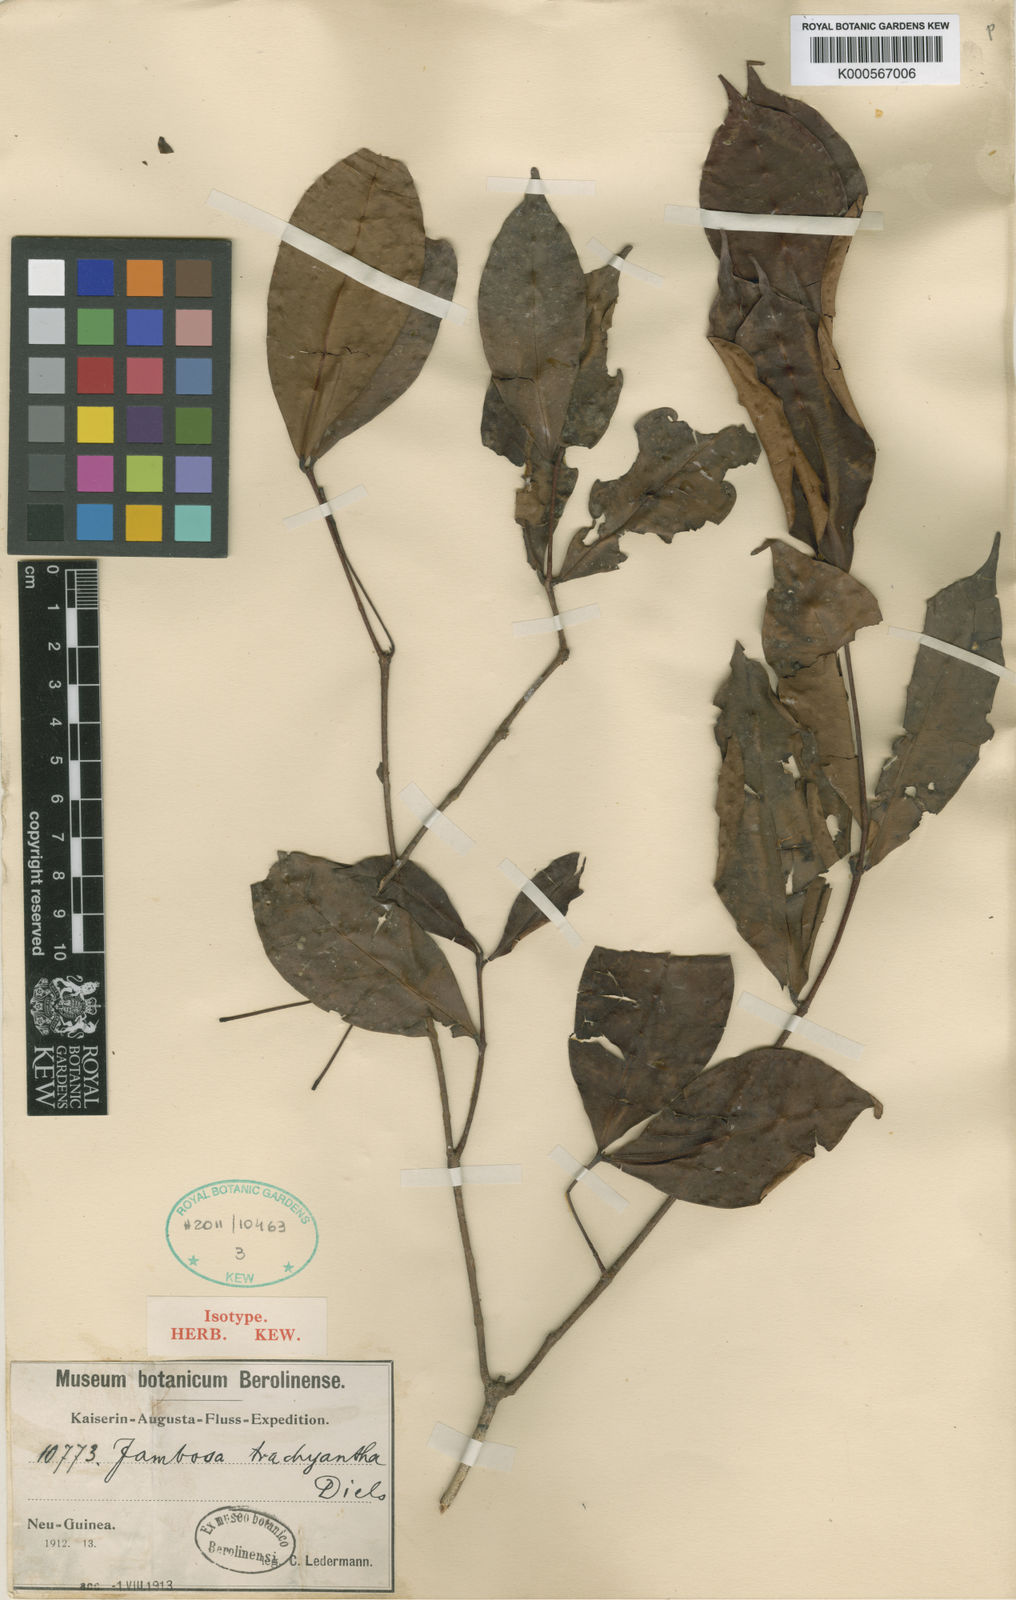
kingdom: Plantae
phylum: Tracheophyta
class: Magnoliopsida
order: Myrtales
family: Myrtaceae
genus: Syzygium
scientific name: Syzygium trachyanthum
